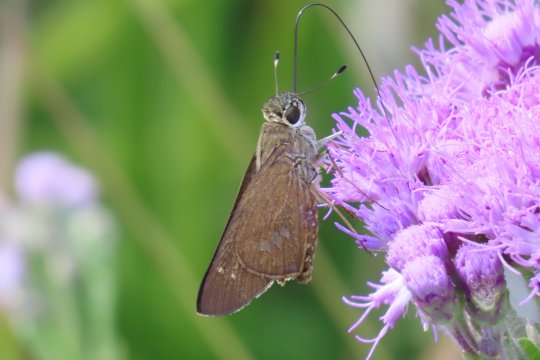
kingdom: Animalia
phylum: Arthropoda
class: Insecta
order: Lepidoptera
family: Hesperiidae
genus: Calpodes
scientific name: Calpodes ethlius
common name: Brazilian Skipper
